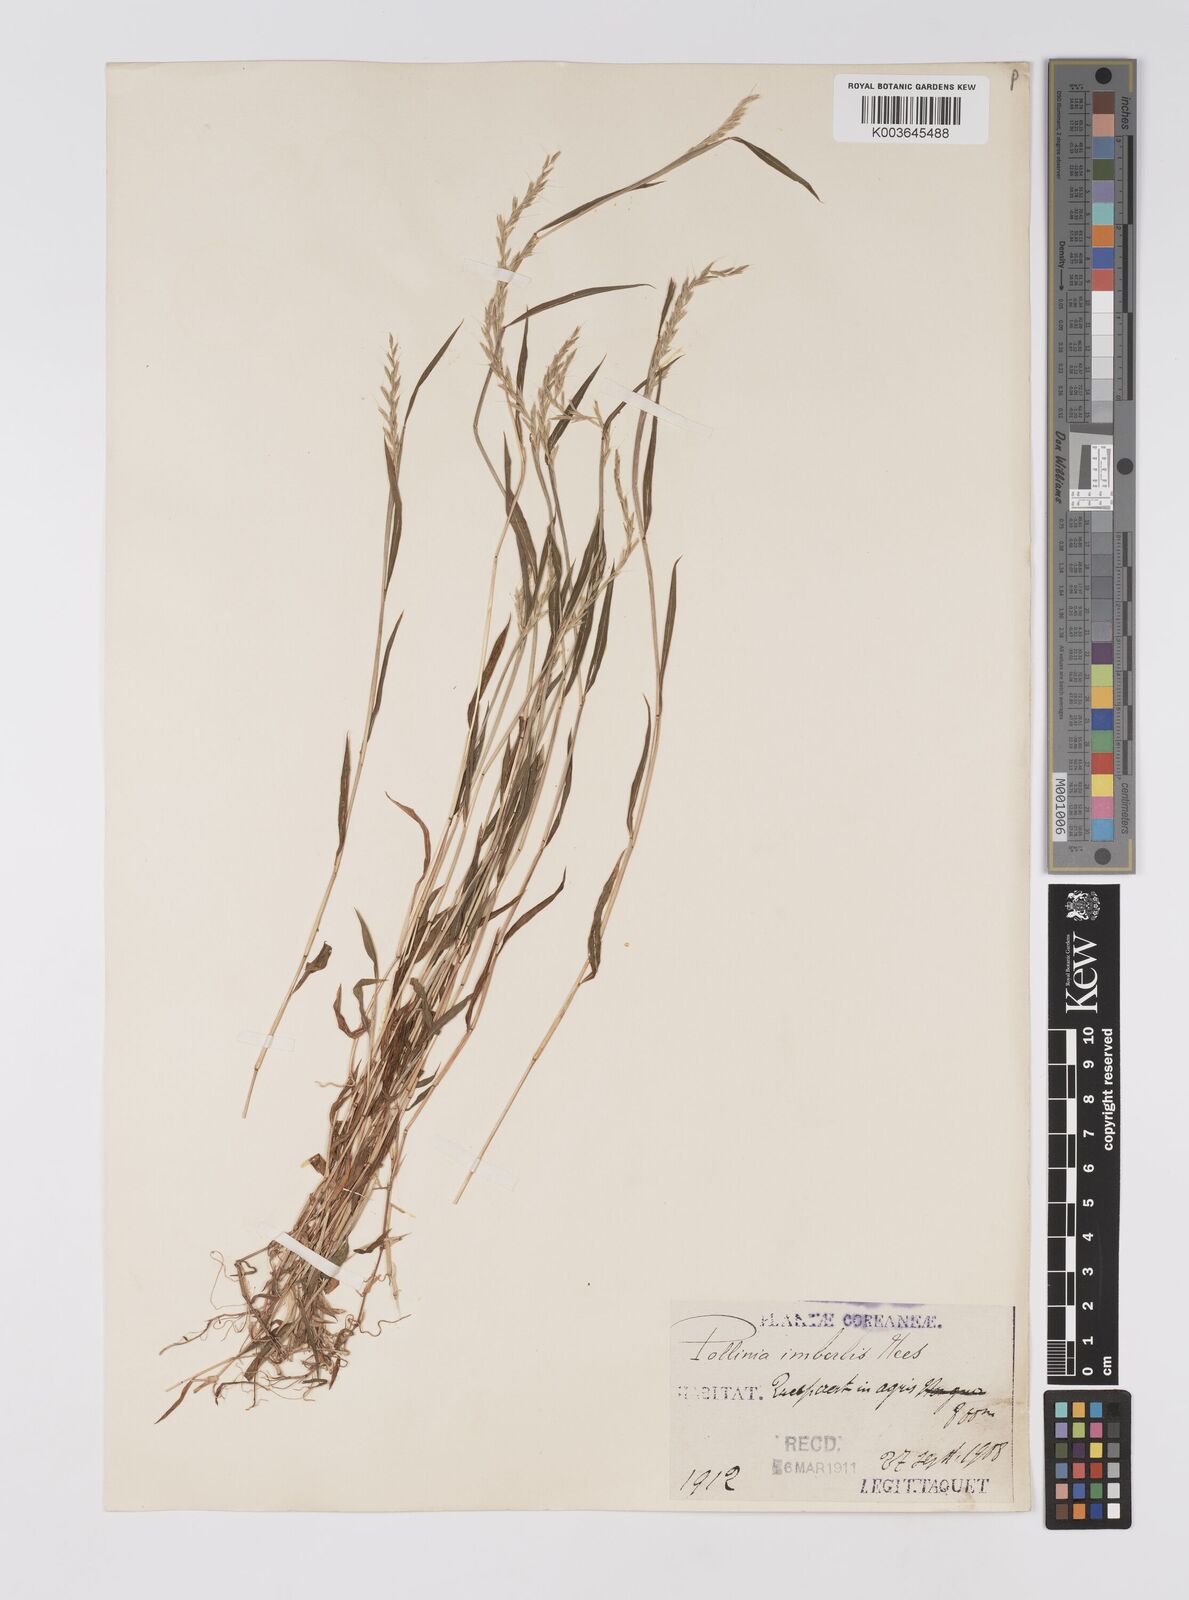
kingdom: Plantae
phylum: Tracheophyta
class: Liliopsida
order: Poales
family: Poaceae
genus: Microstegium
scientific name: Microstegium vimineum
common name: Japanese stiltgrass
